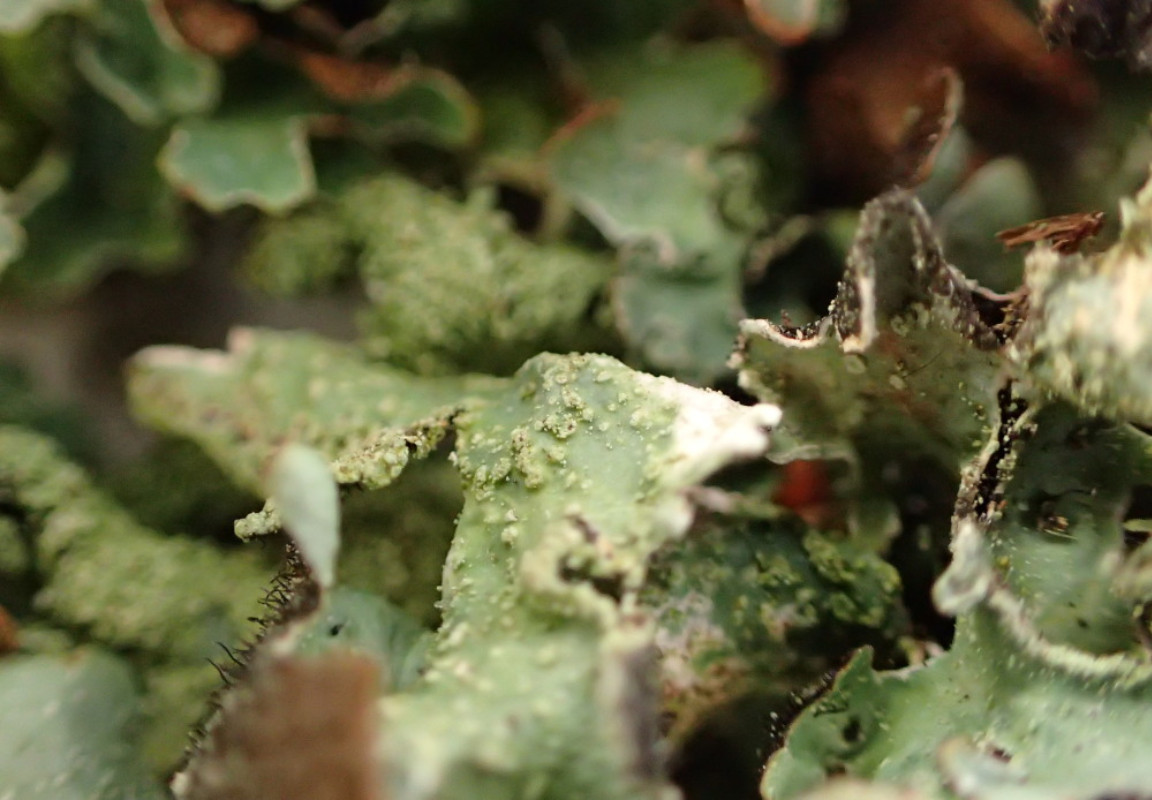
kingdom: Fungi
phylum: Ascomycota
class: Lecanoromycetes
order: Lecanorales
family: Parmeliaceae
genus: Parmelia
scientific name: Parmelia sulcata
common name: rynket skållav
